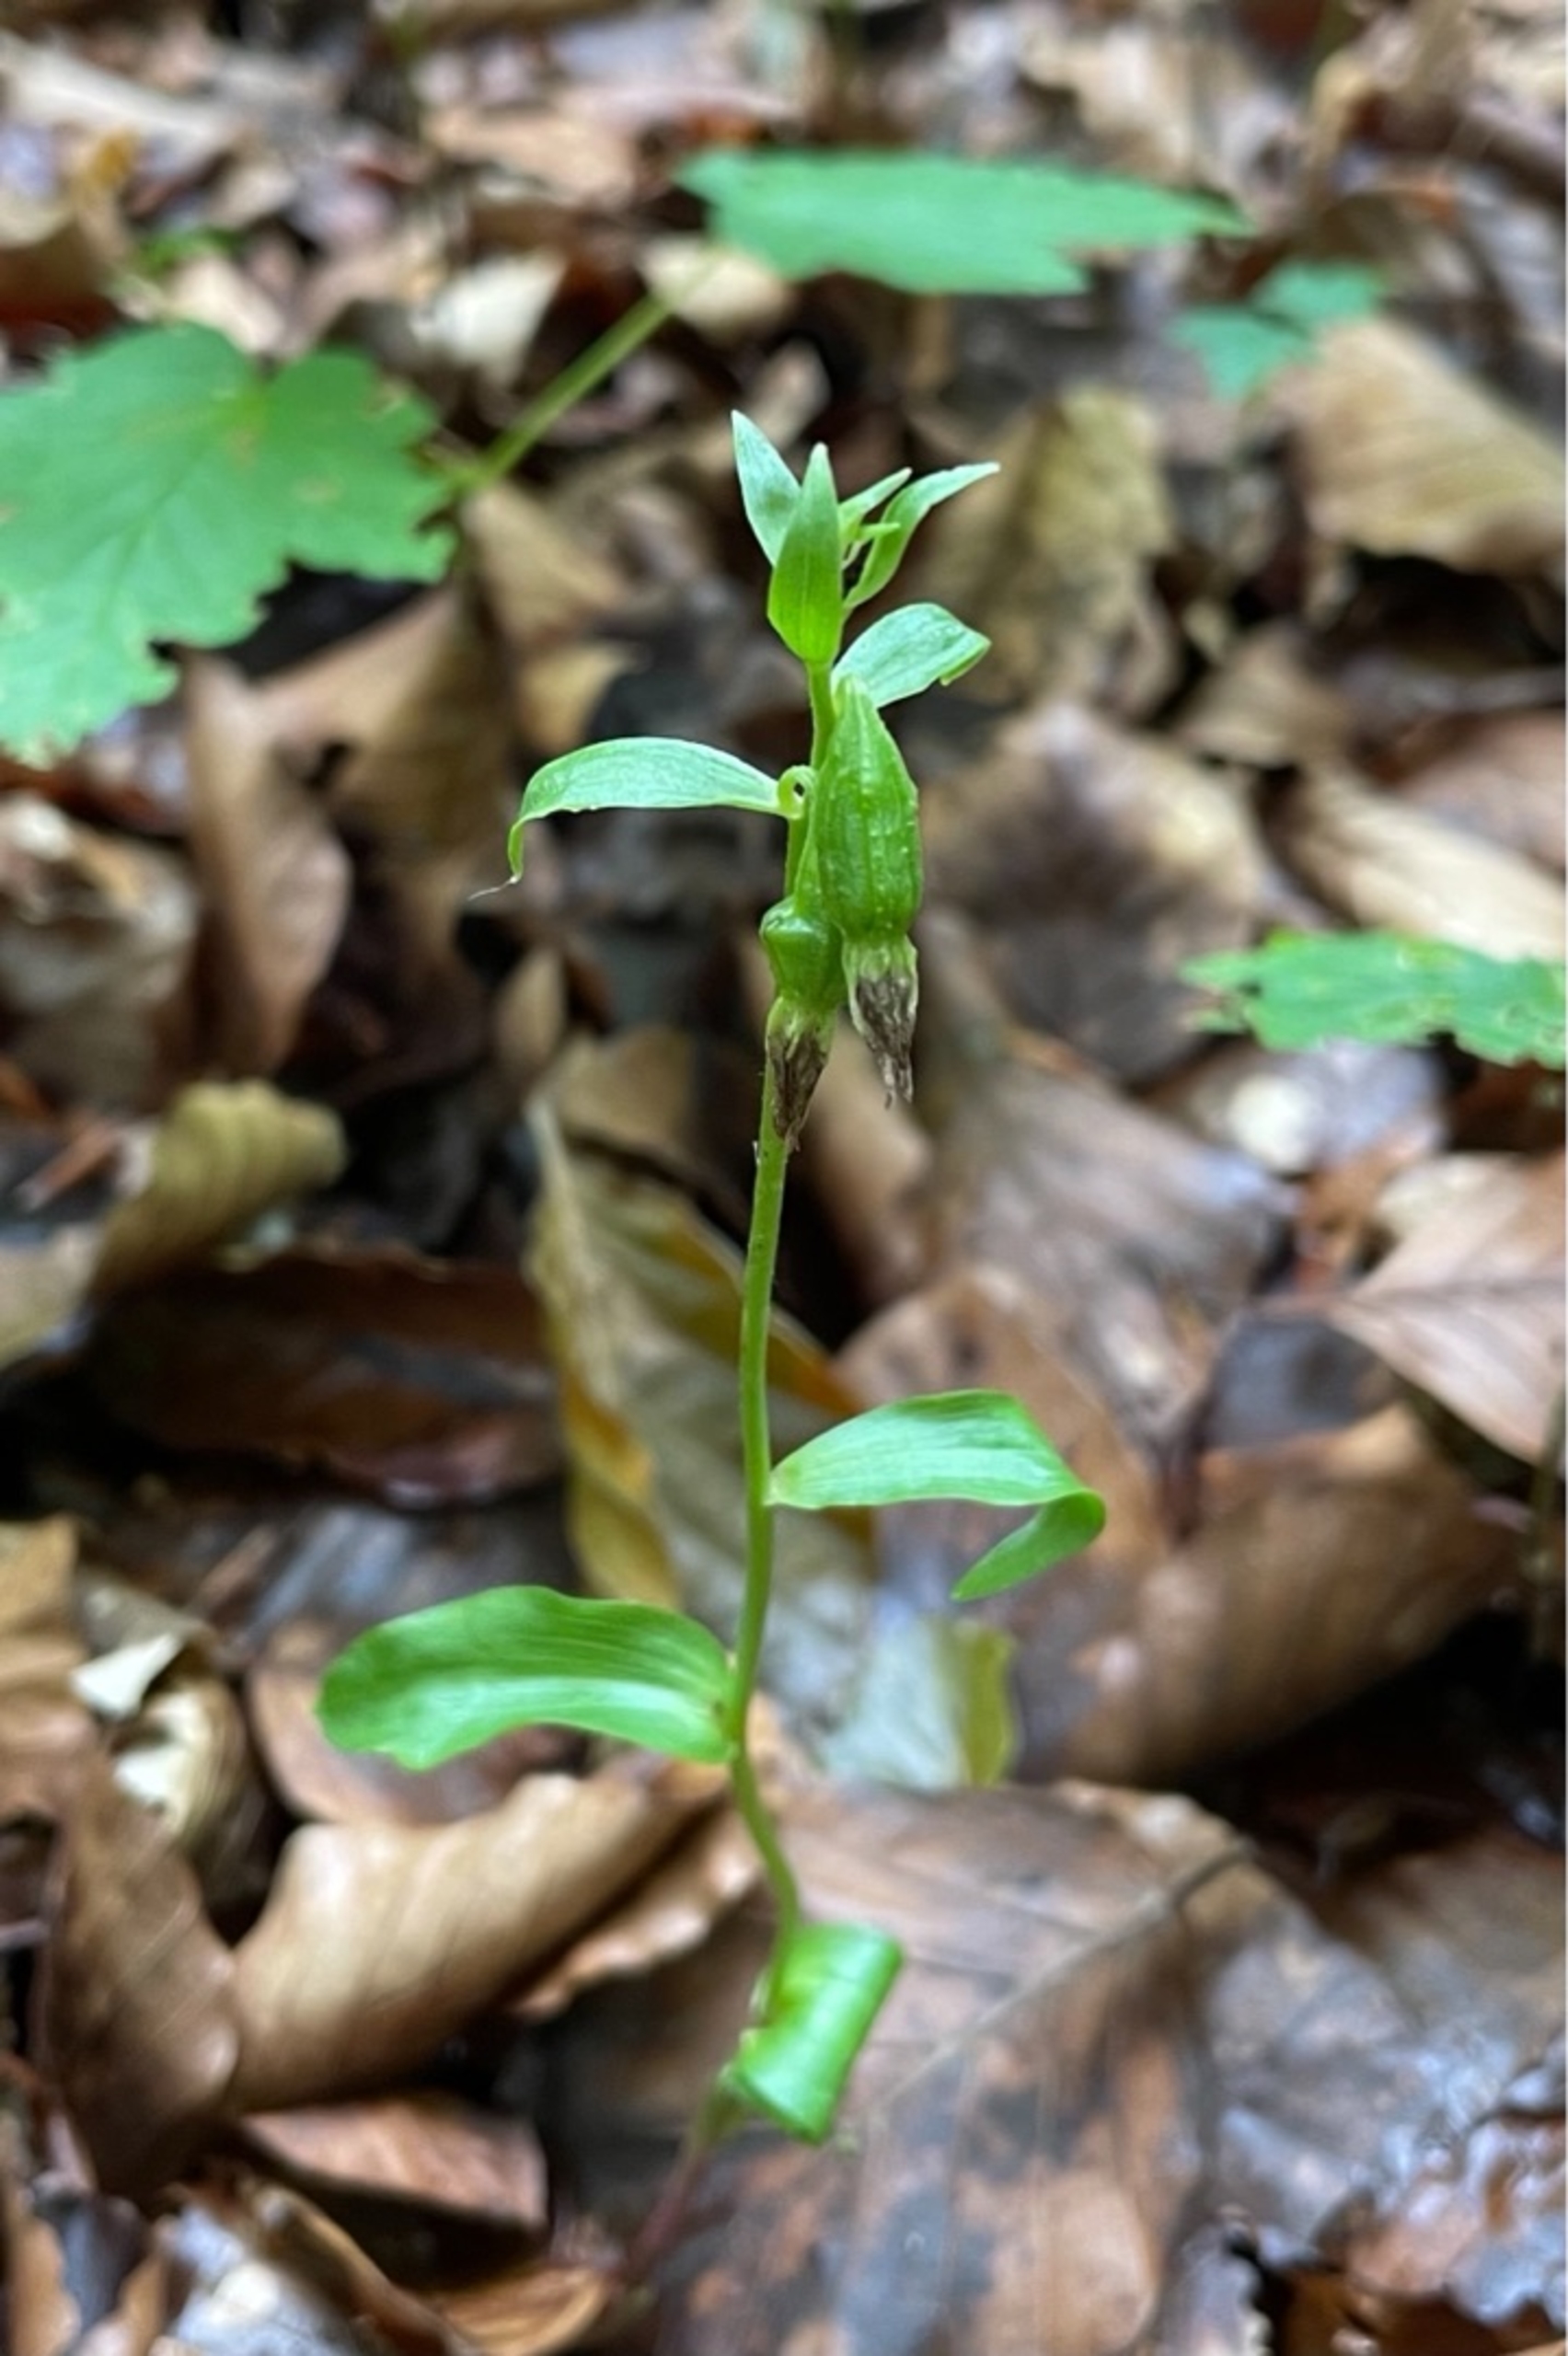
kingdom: Plantae
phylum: Tracheophyta
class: Liliopsida
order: Asparagales
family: Orchidaceae
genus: Epipactis
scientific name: Epipactis phyllanthes
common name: Nikkende hullæbe
